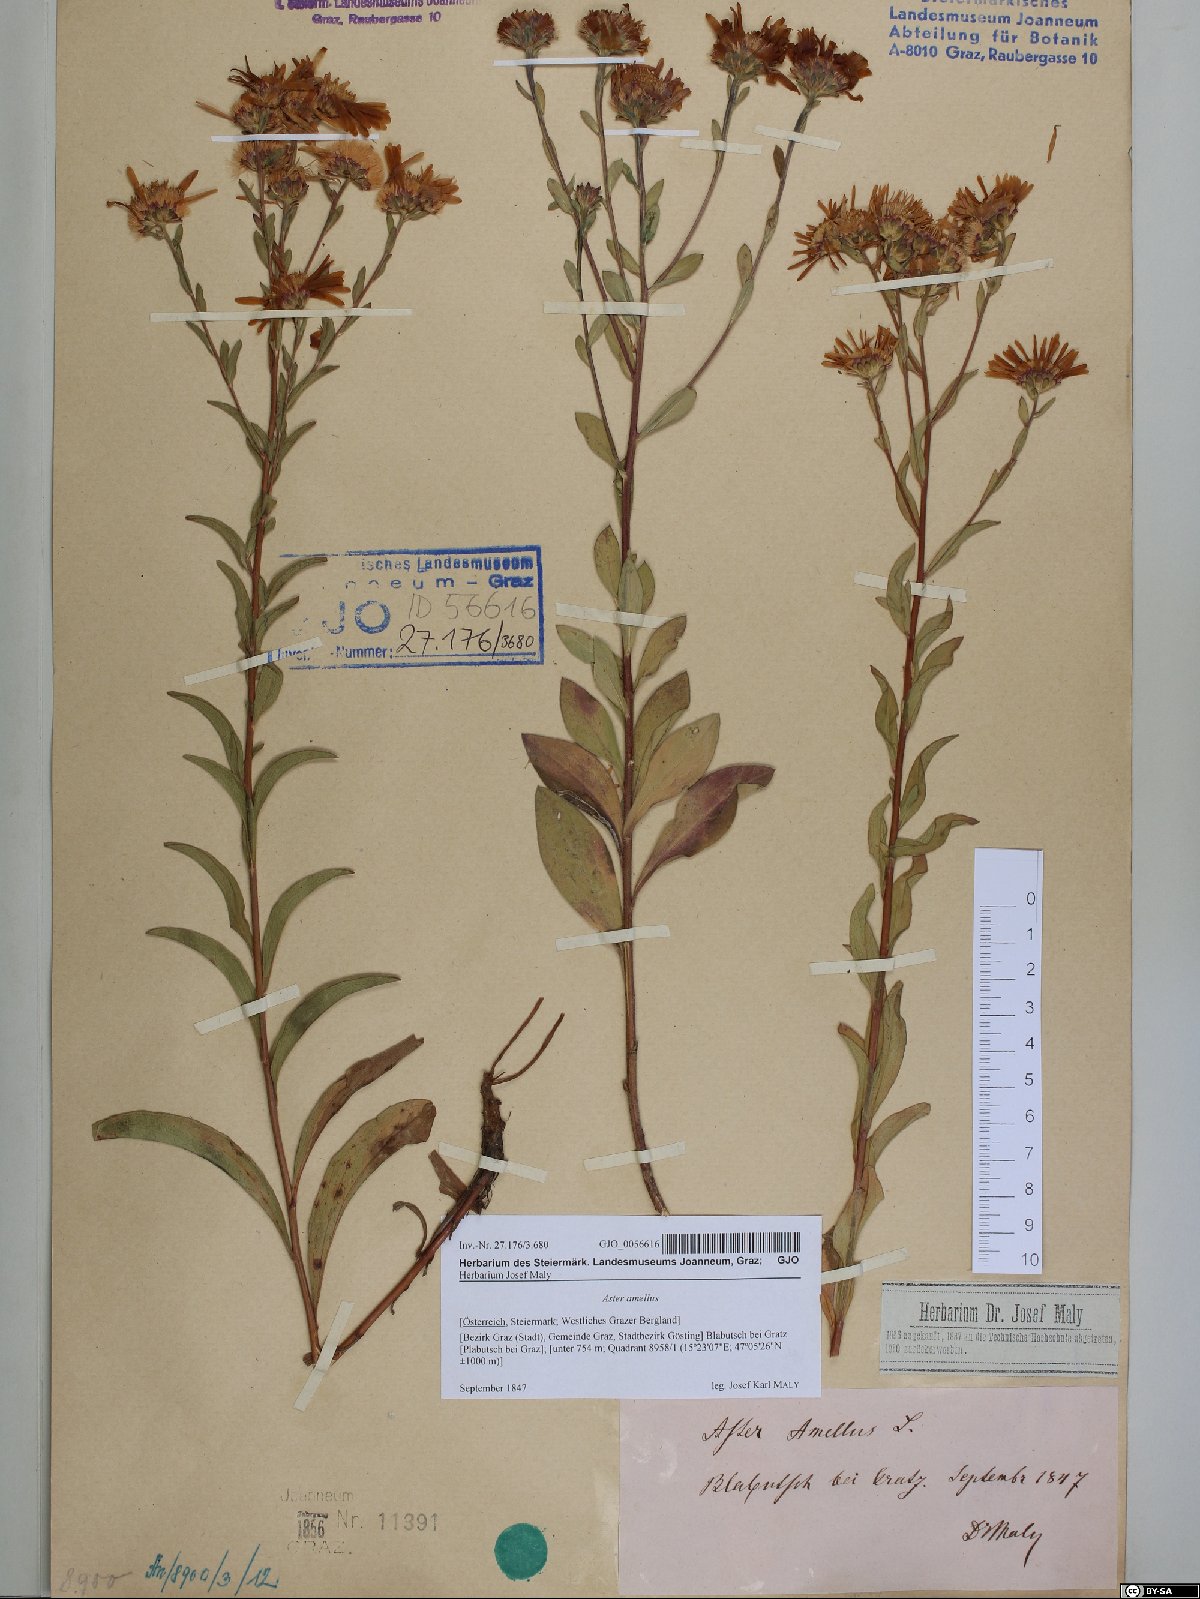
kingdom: Plantae
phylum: Tracheophyta
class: Magnoliopsida
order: Asterales
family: Asteraceae
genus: Aster
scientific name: Aster amellus
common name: European michaelmas daisy
